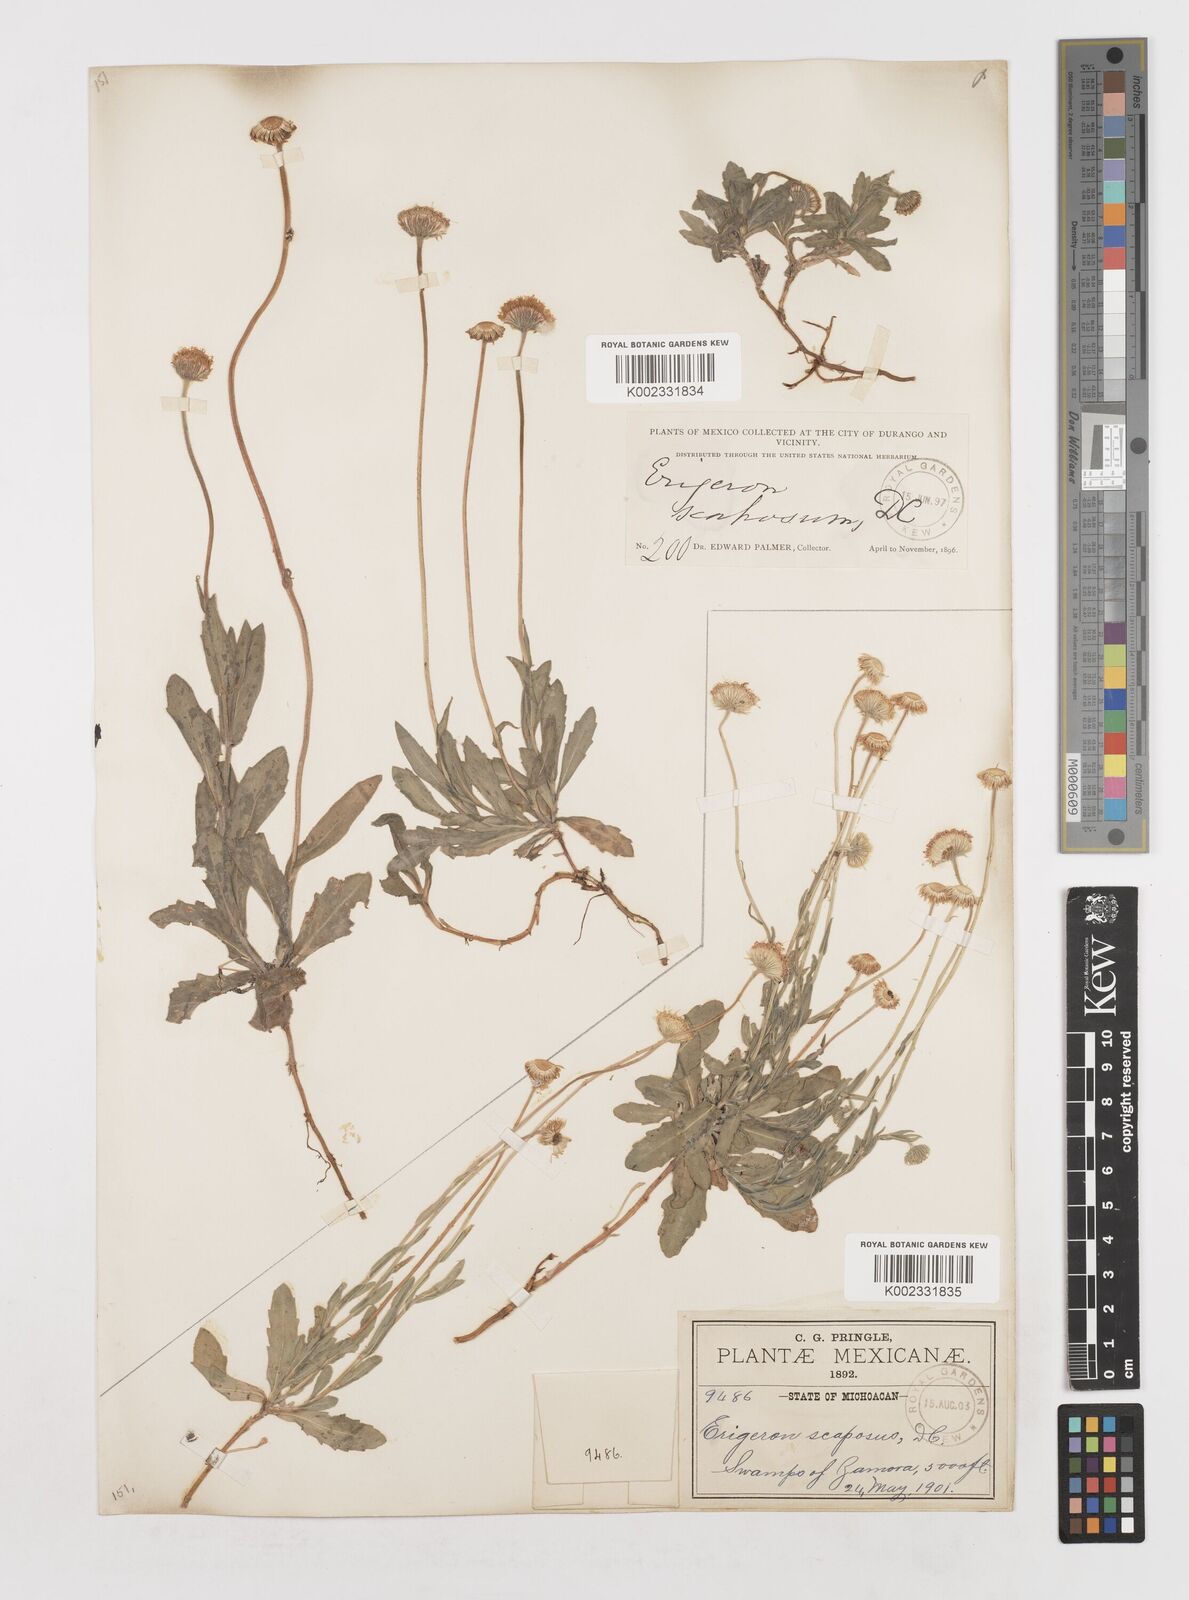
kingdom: Plantae
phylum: Tracheophyta
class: Magnoliopsida
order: Asterales
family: Asteraceae
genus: Erigeron
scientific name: Erigeron longipes
